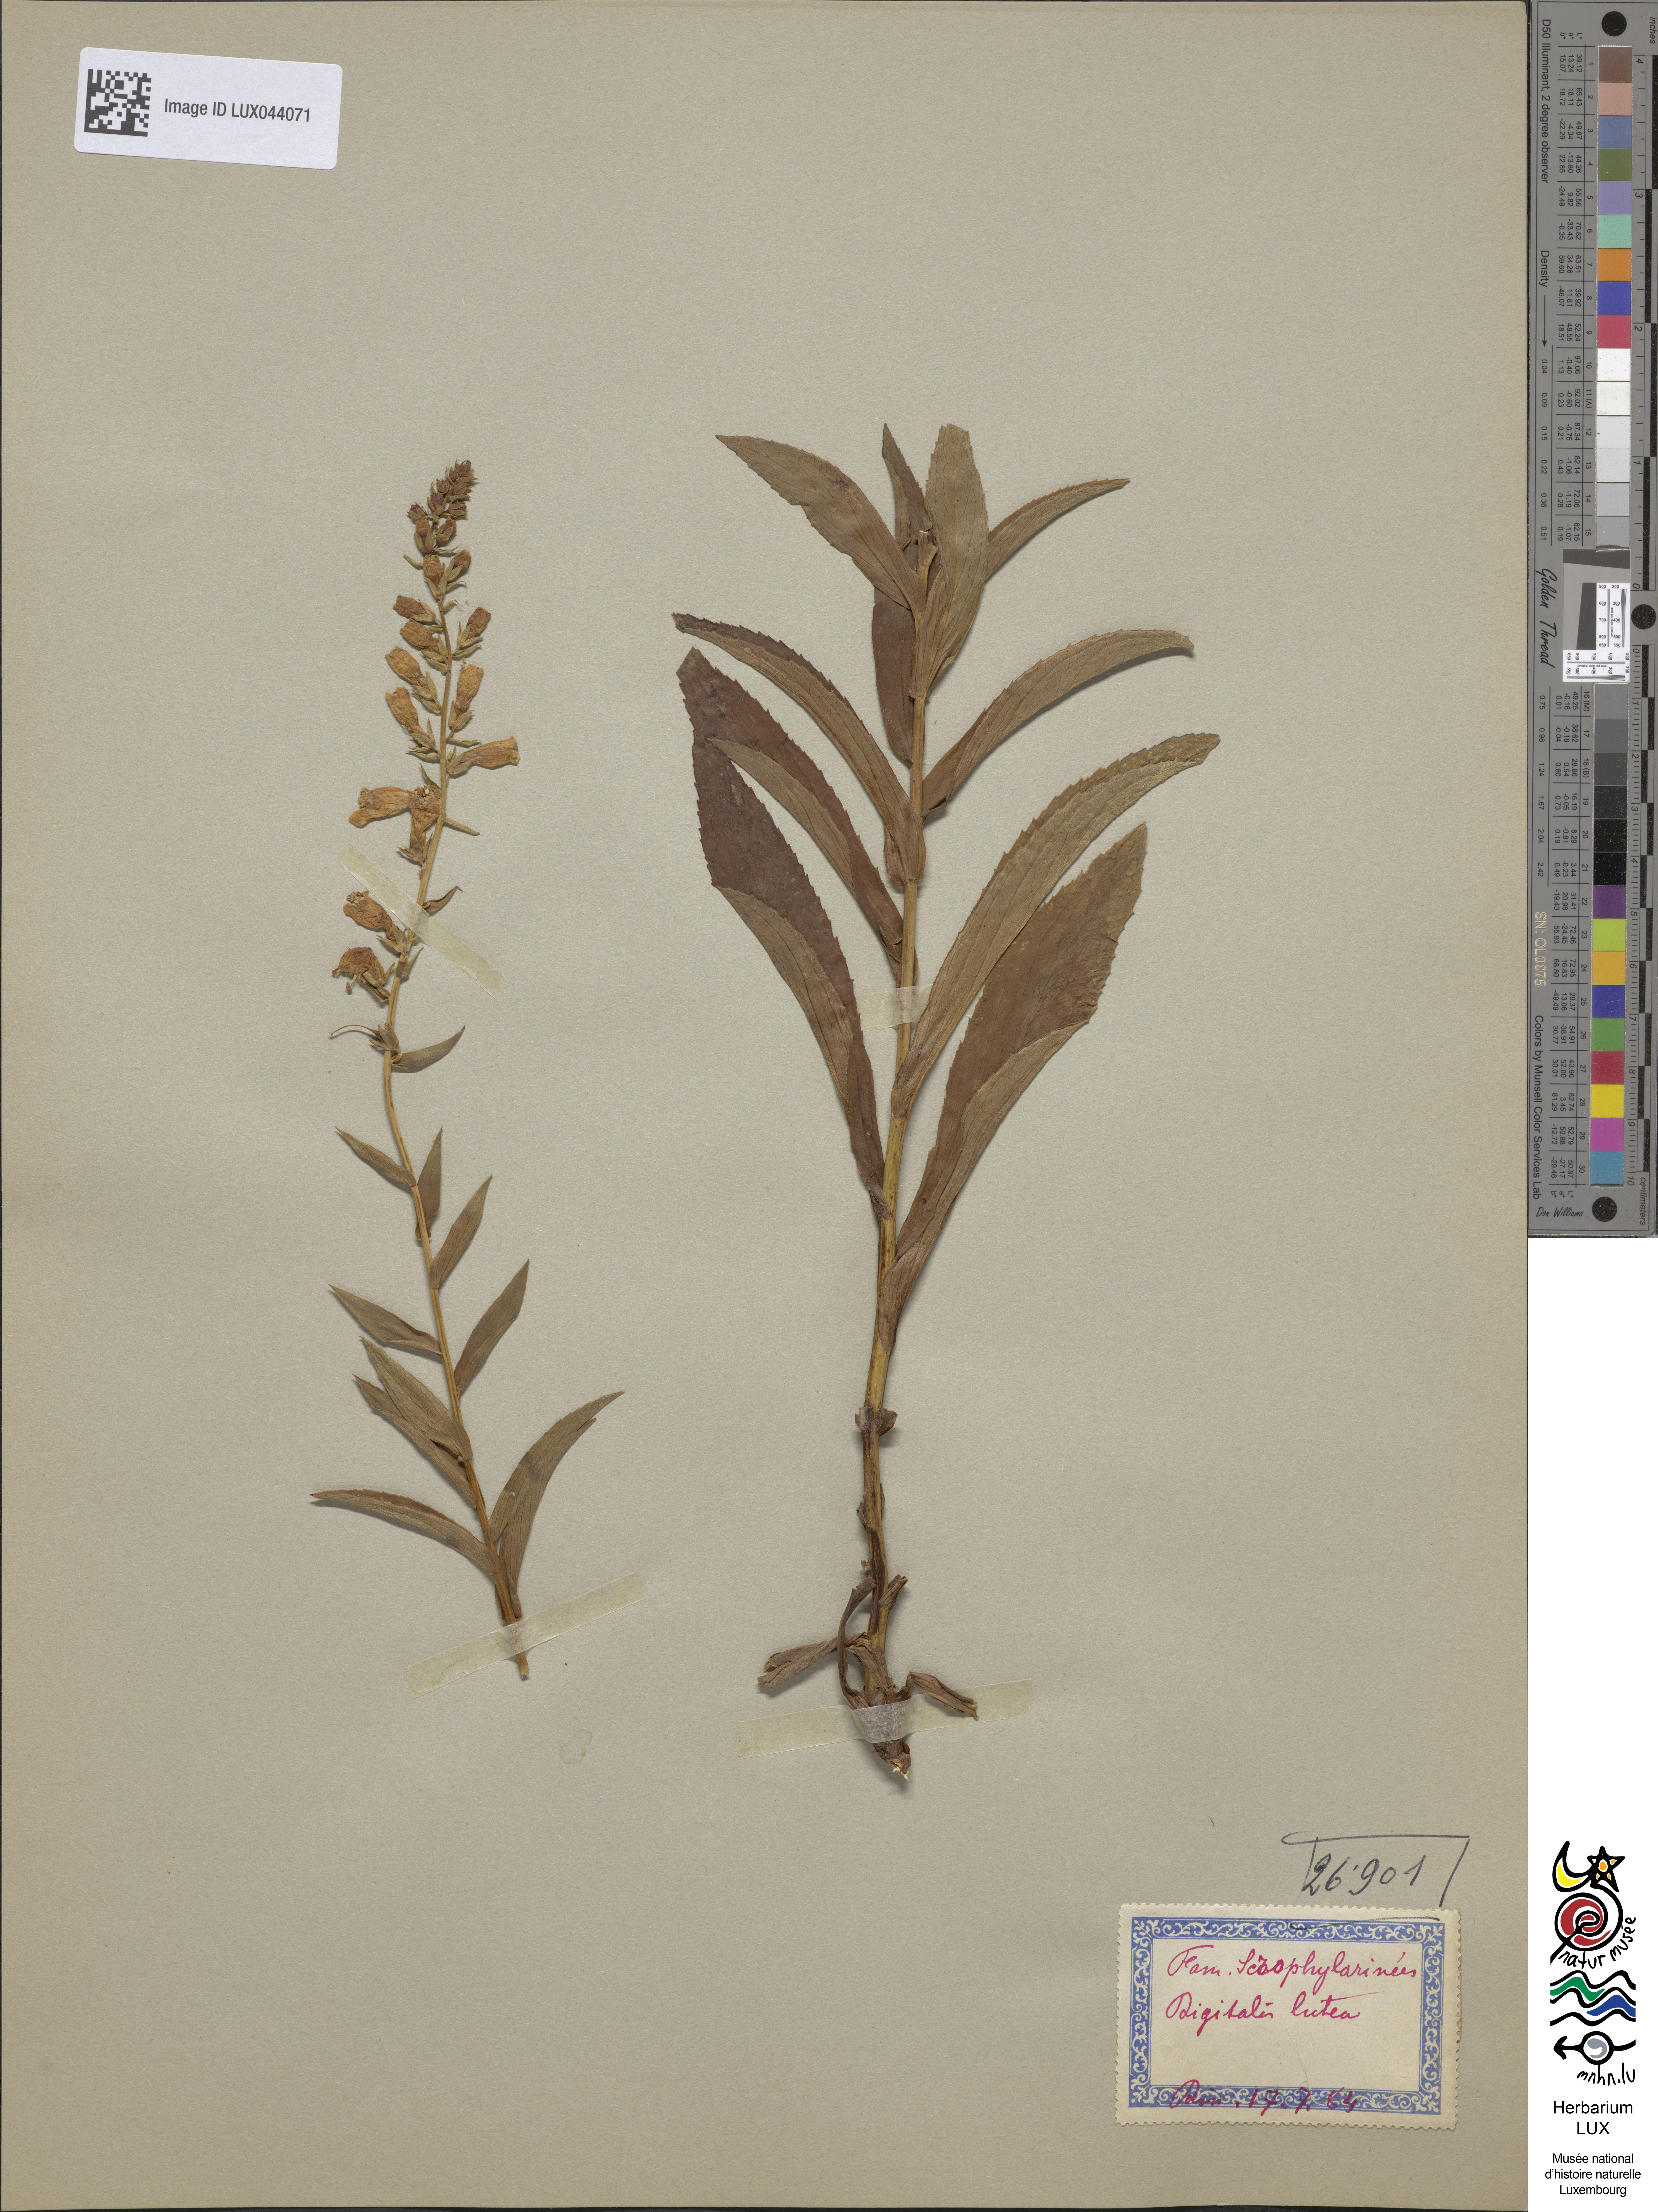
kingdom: Plantae
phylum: Tracheophyta
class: Magnoliopsida
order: Lamiales
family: Plantaginaceae
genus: Digitalis
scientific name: Digitalis lutea
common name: Straw foxglove
